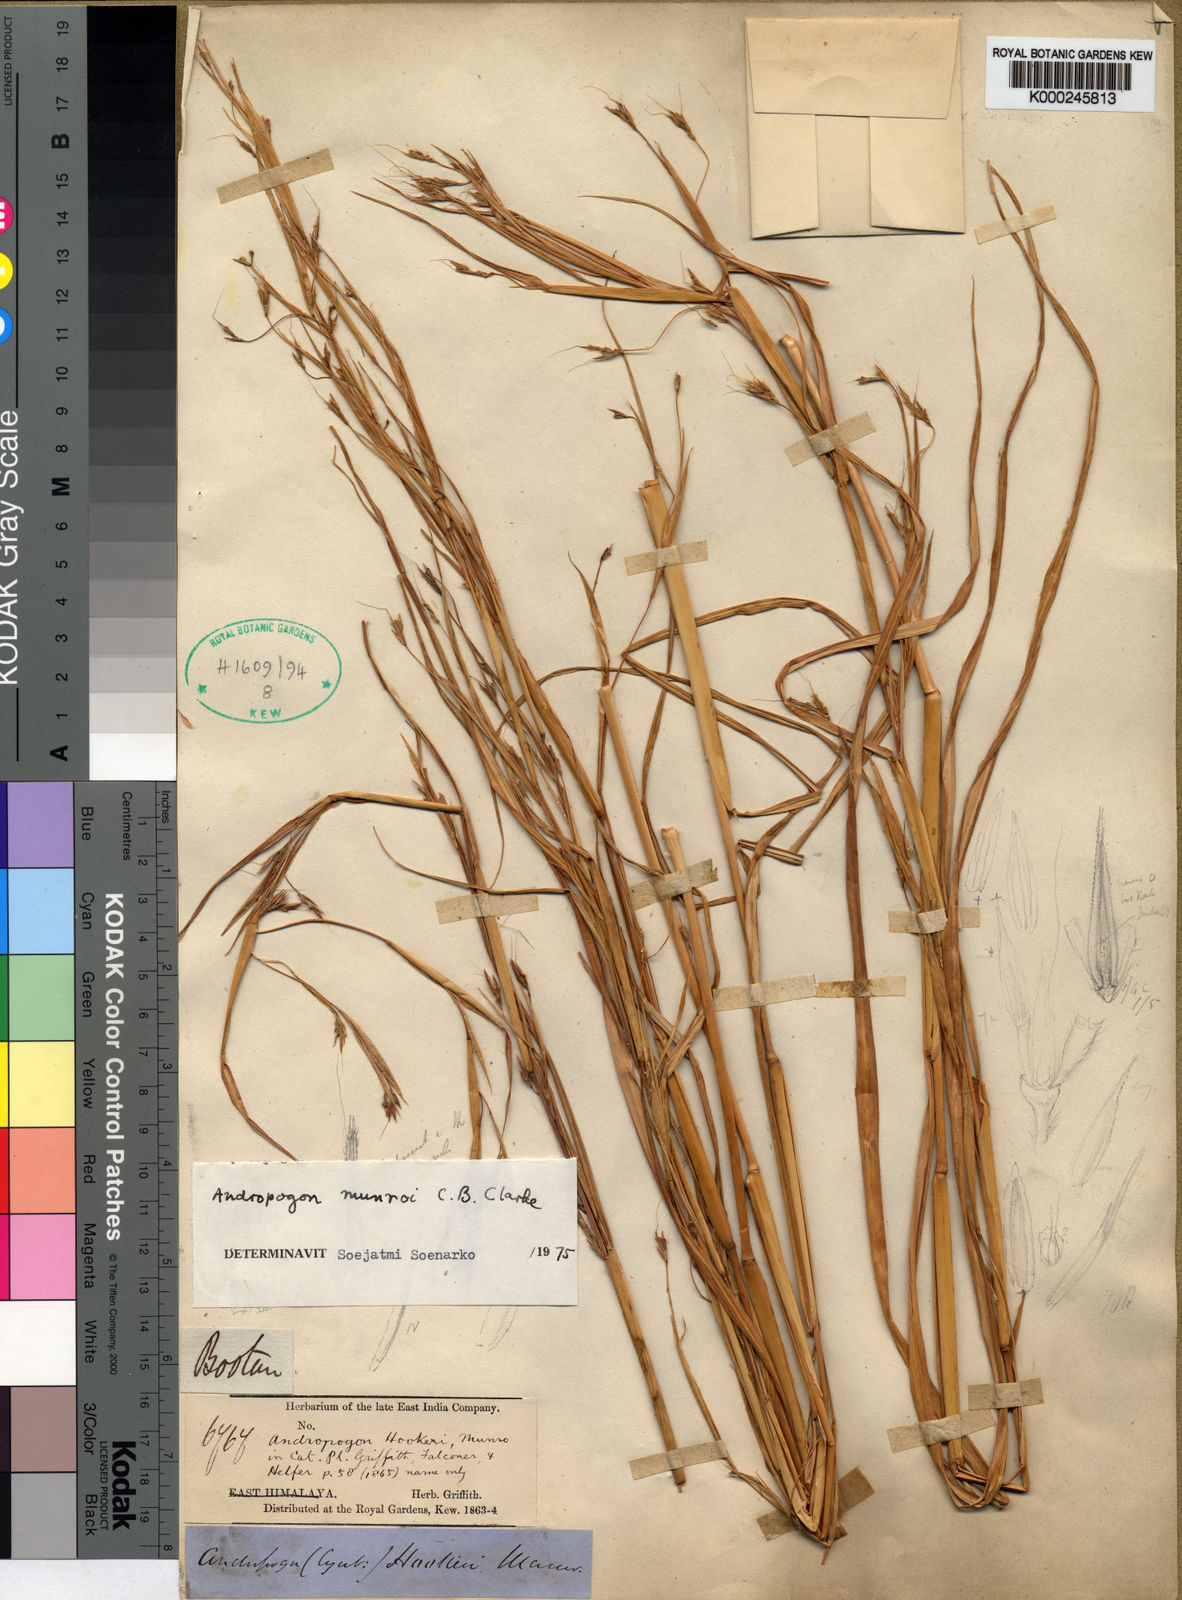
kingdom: Plantae
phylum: Tracheophyta
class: Liliopsida
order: Poales
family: Poaceae
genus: Andropogon
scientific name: Andropogon munroi
